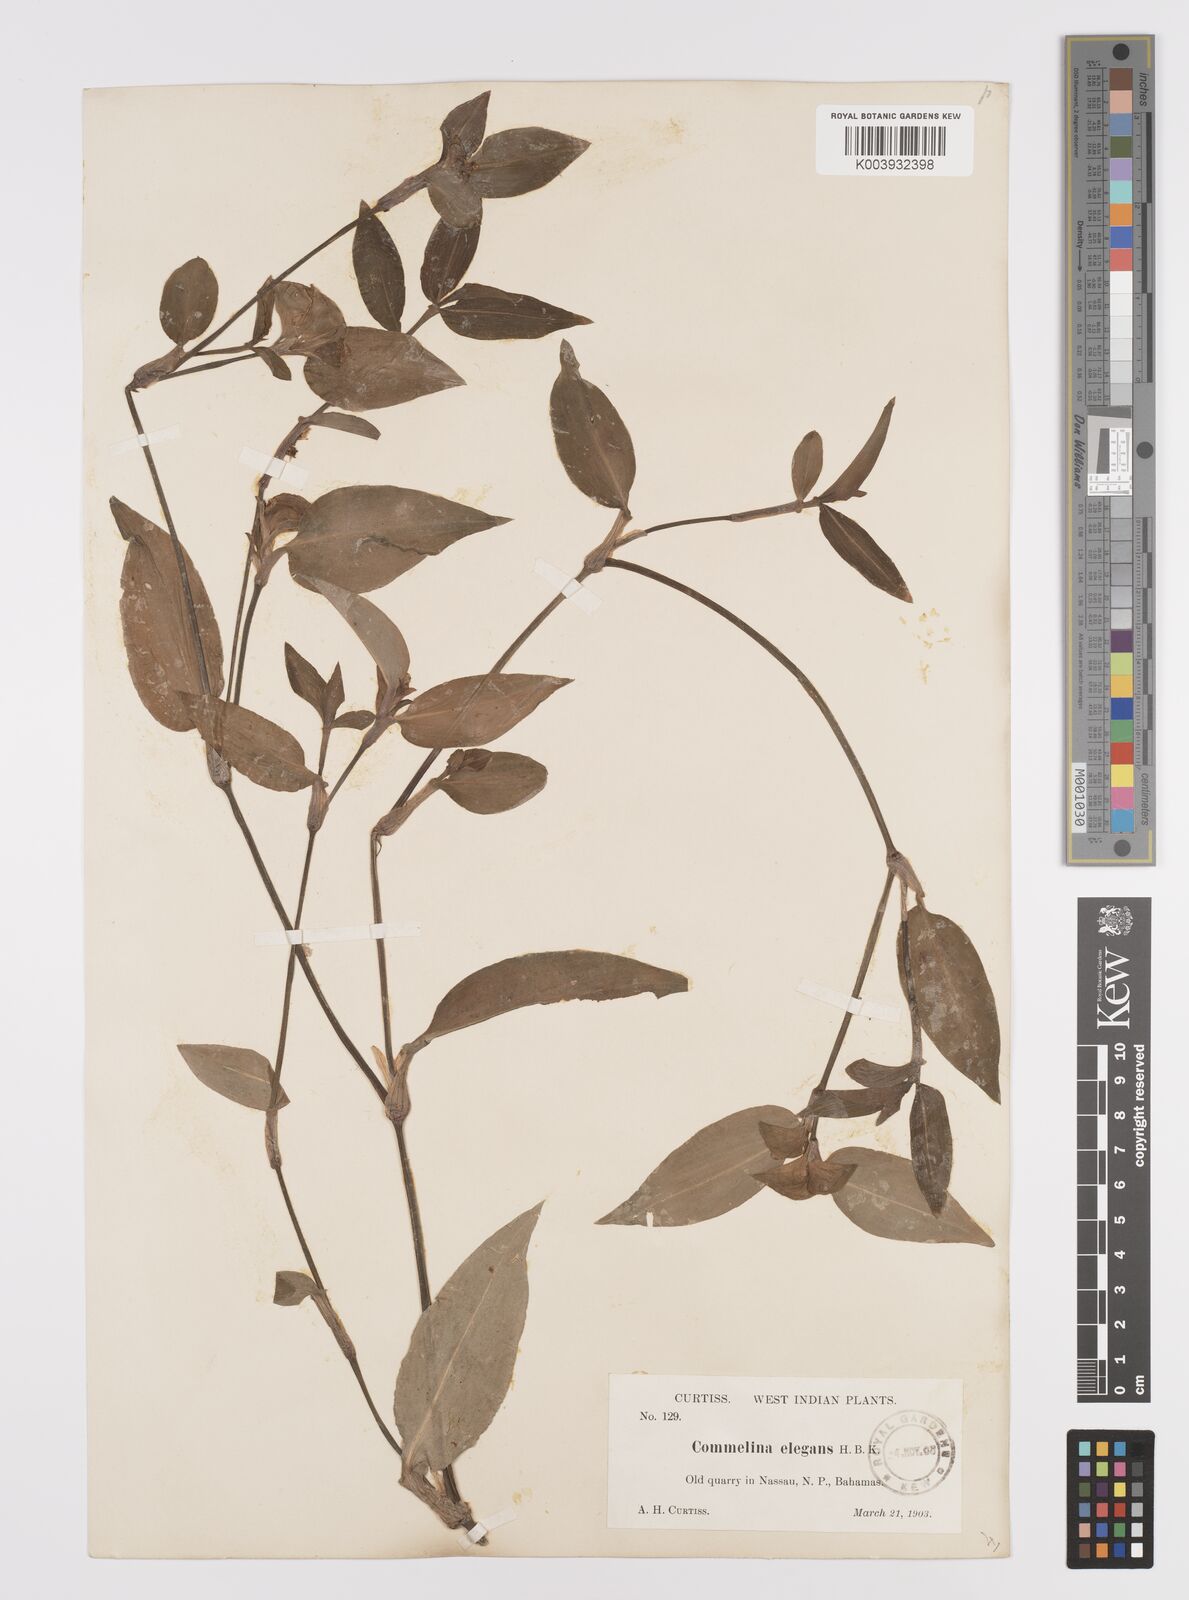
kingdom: Plantae
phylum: Tracheophyta
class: Liliopsida
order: Commelinales
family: Commelinaceae
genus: Commelina
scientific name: Commelina virginica
